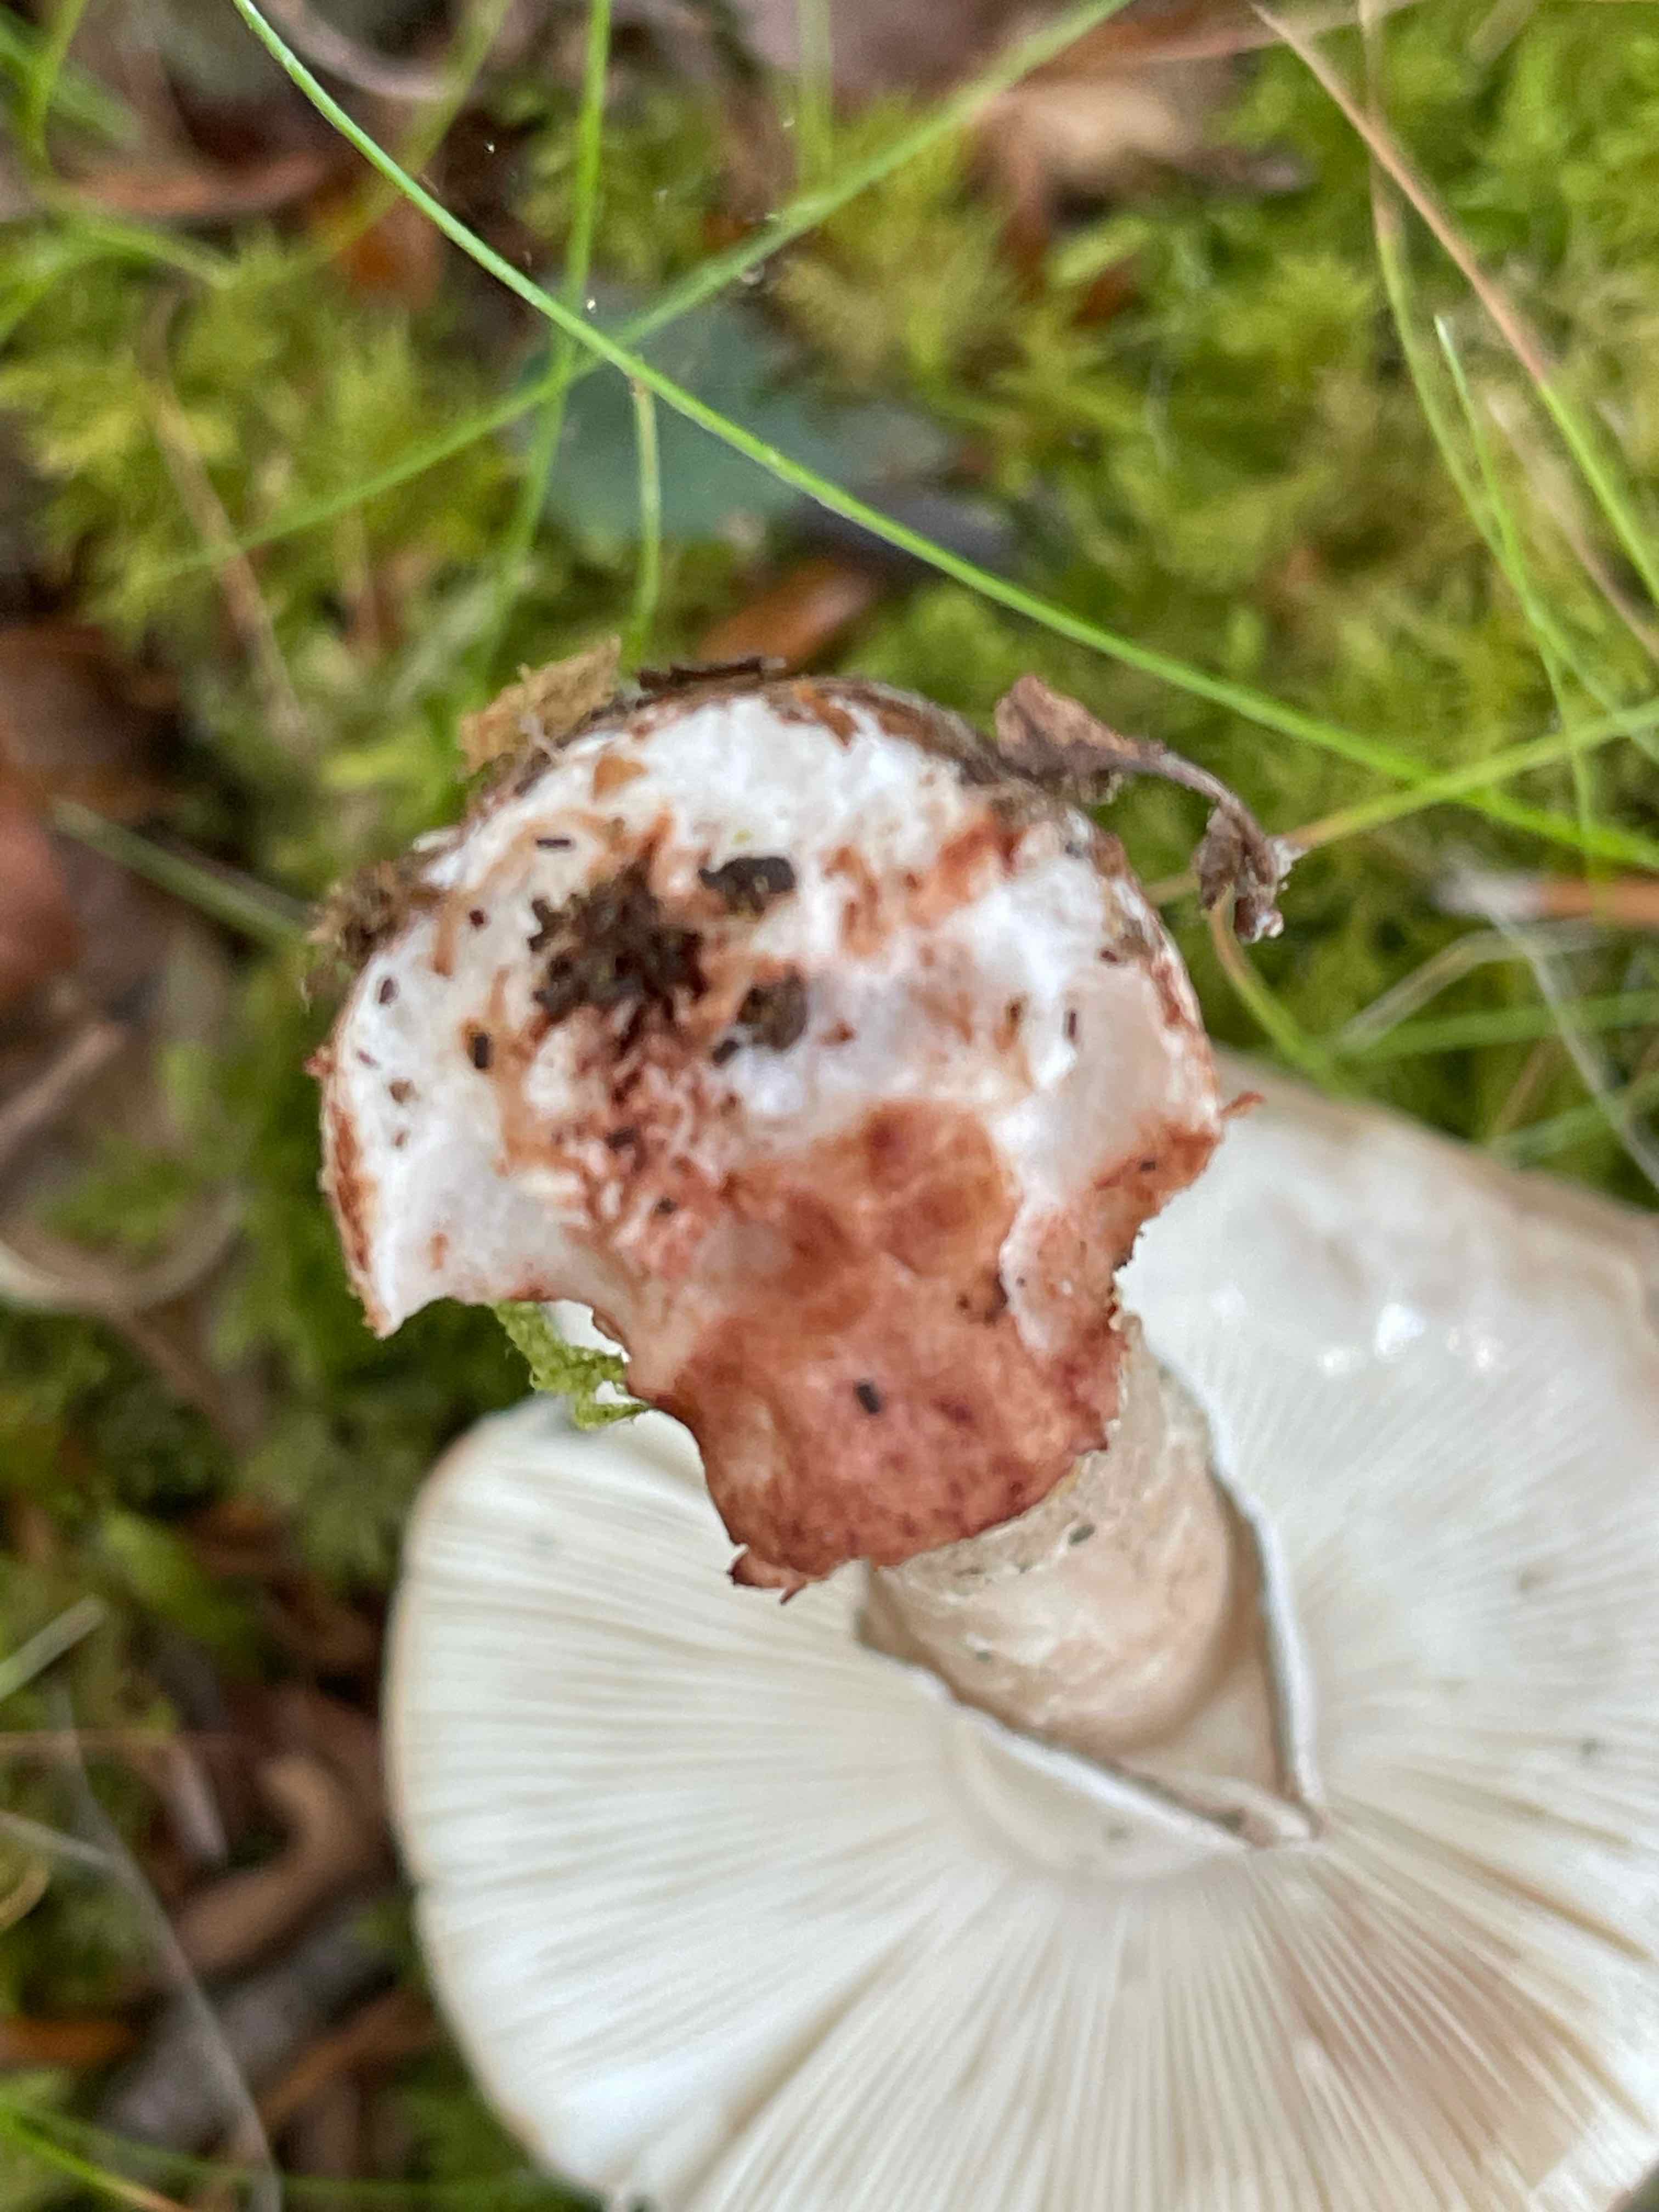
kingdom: Fungi
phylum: Basidiomycota
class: Agaricomycetes
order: Agaricales
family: Amanitaceae
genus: Amanita
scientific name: Amanita rubescens
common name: rødmende fluesvamp
